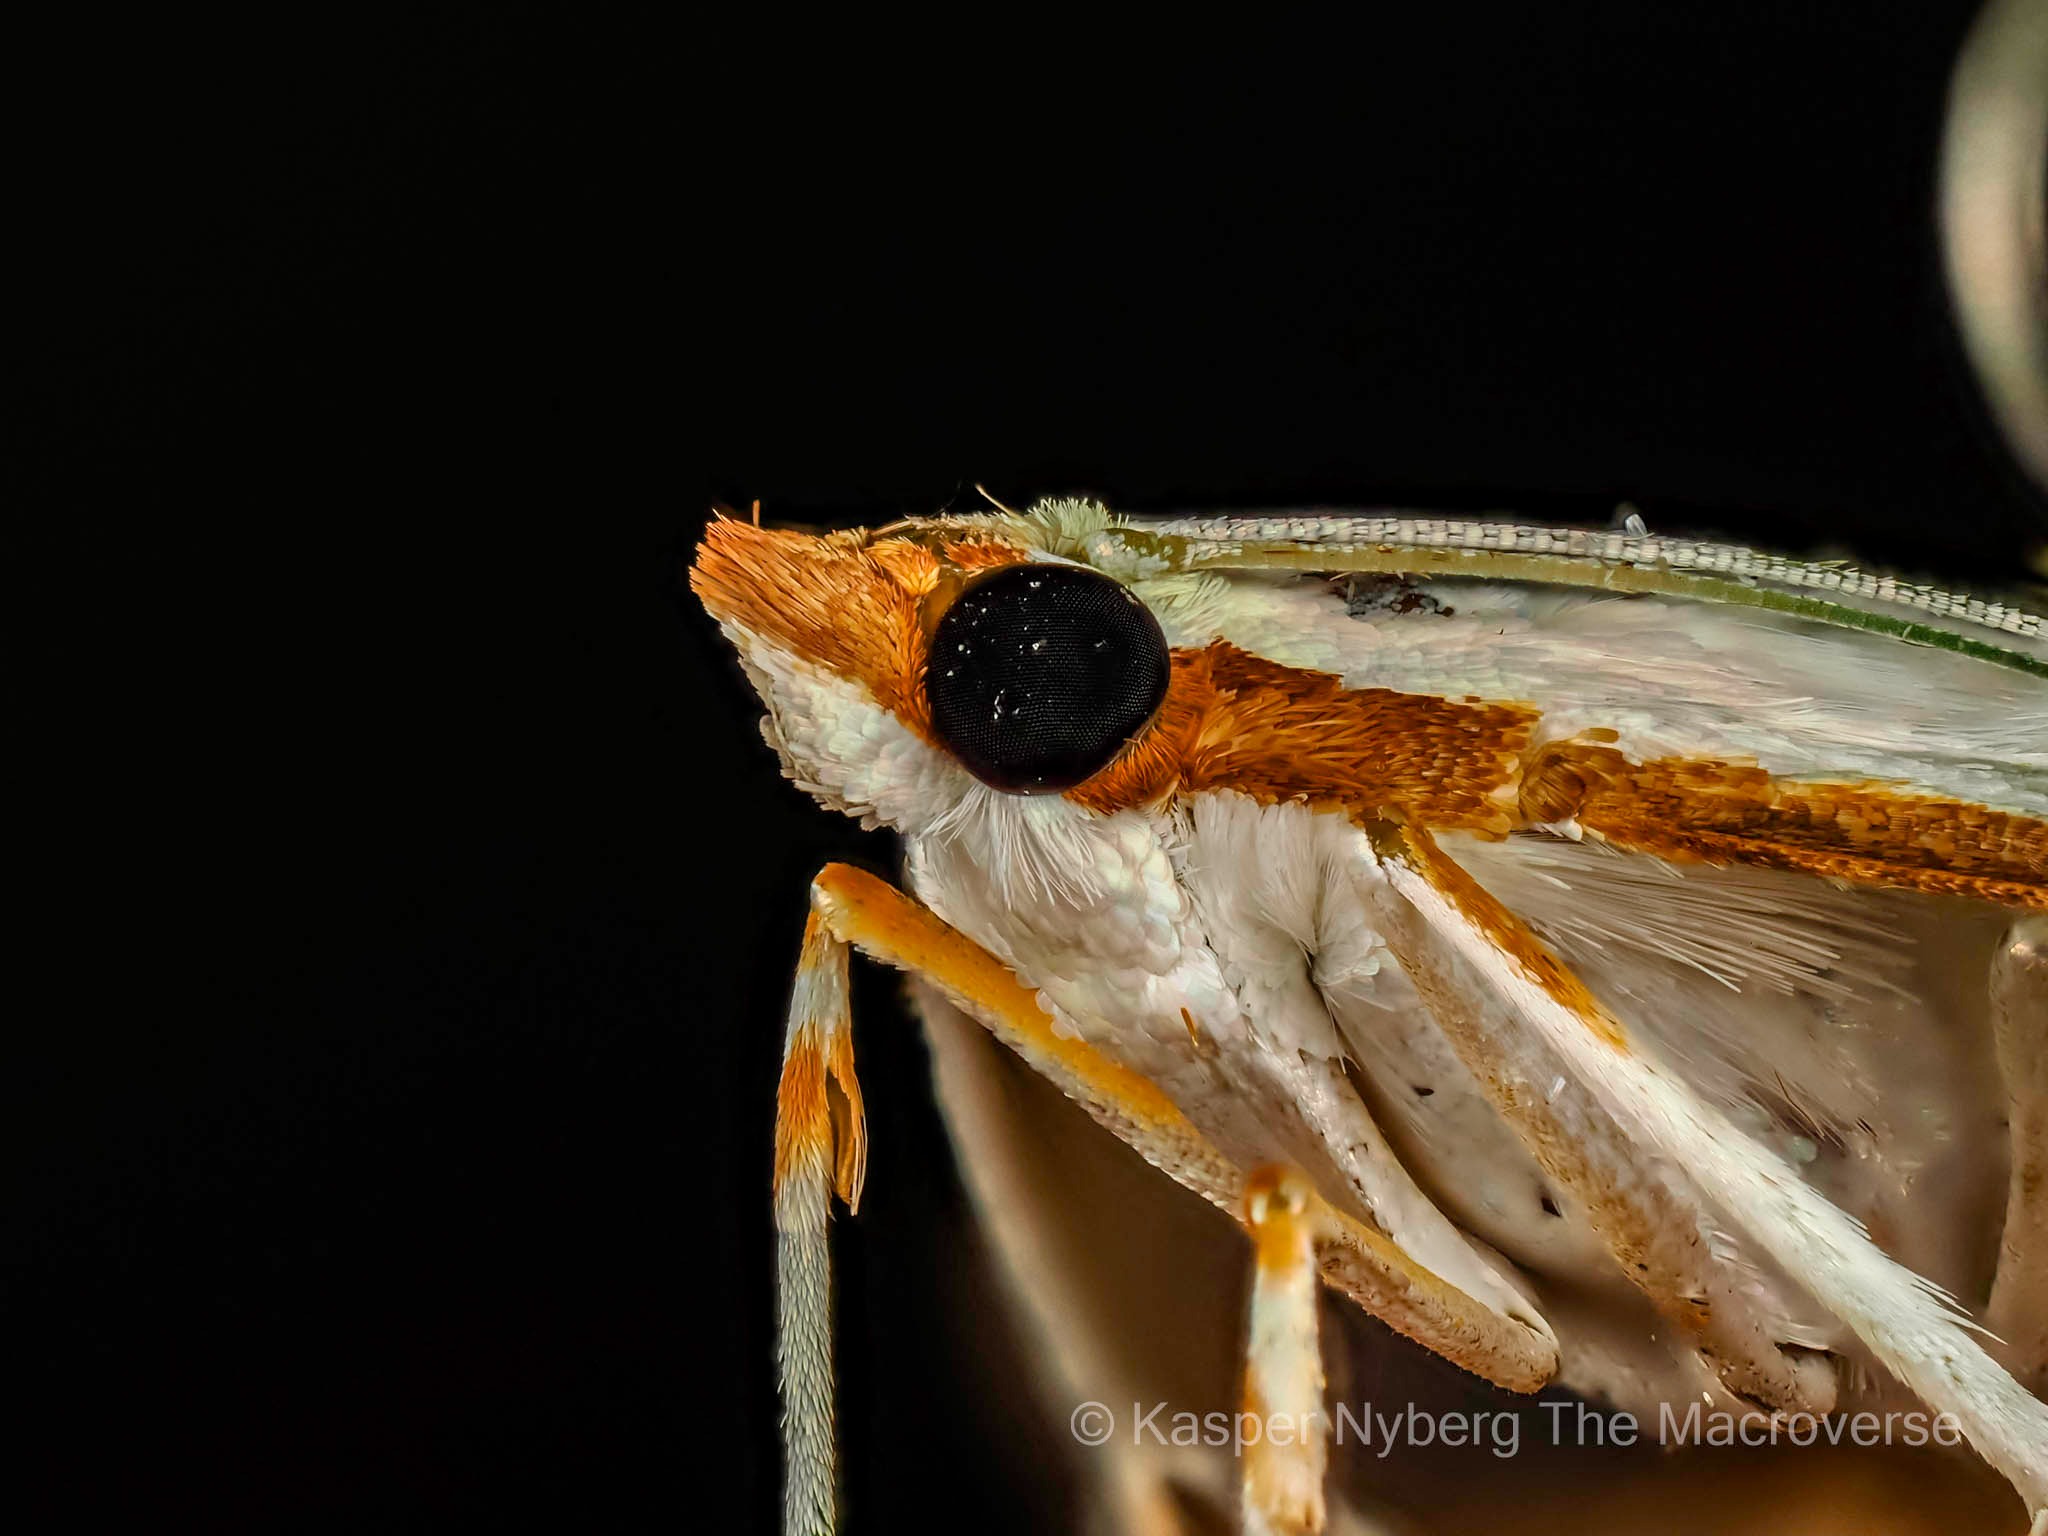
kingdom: Animalia
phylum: Arthropoda
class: Insecta
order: Lepidoptera
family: Crambidae
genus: Palpita
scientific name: Palpita vitrealis
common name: Hvidt halvmøl
